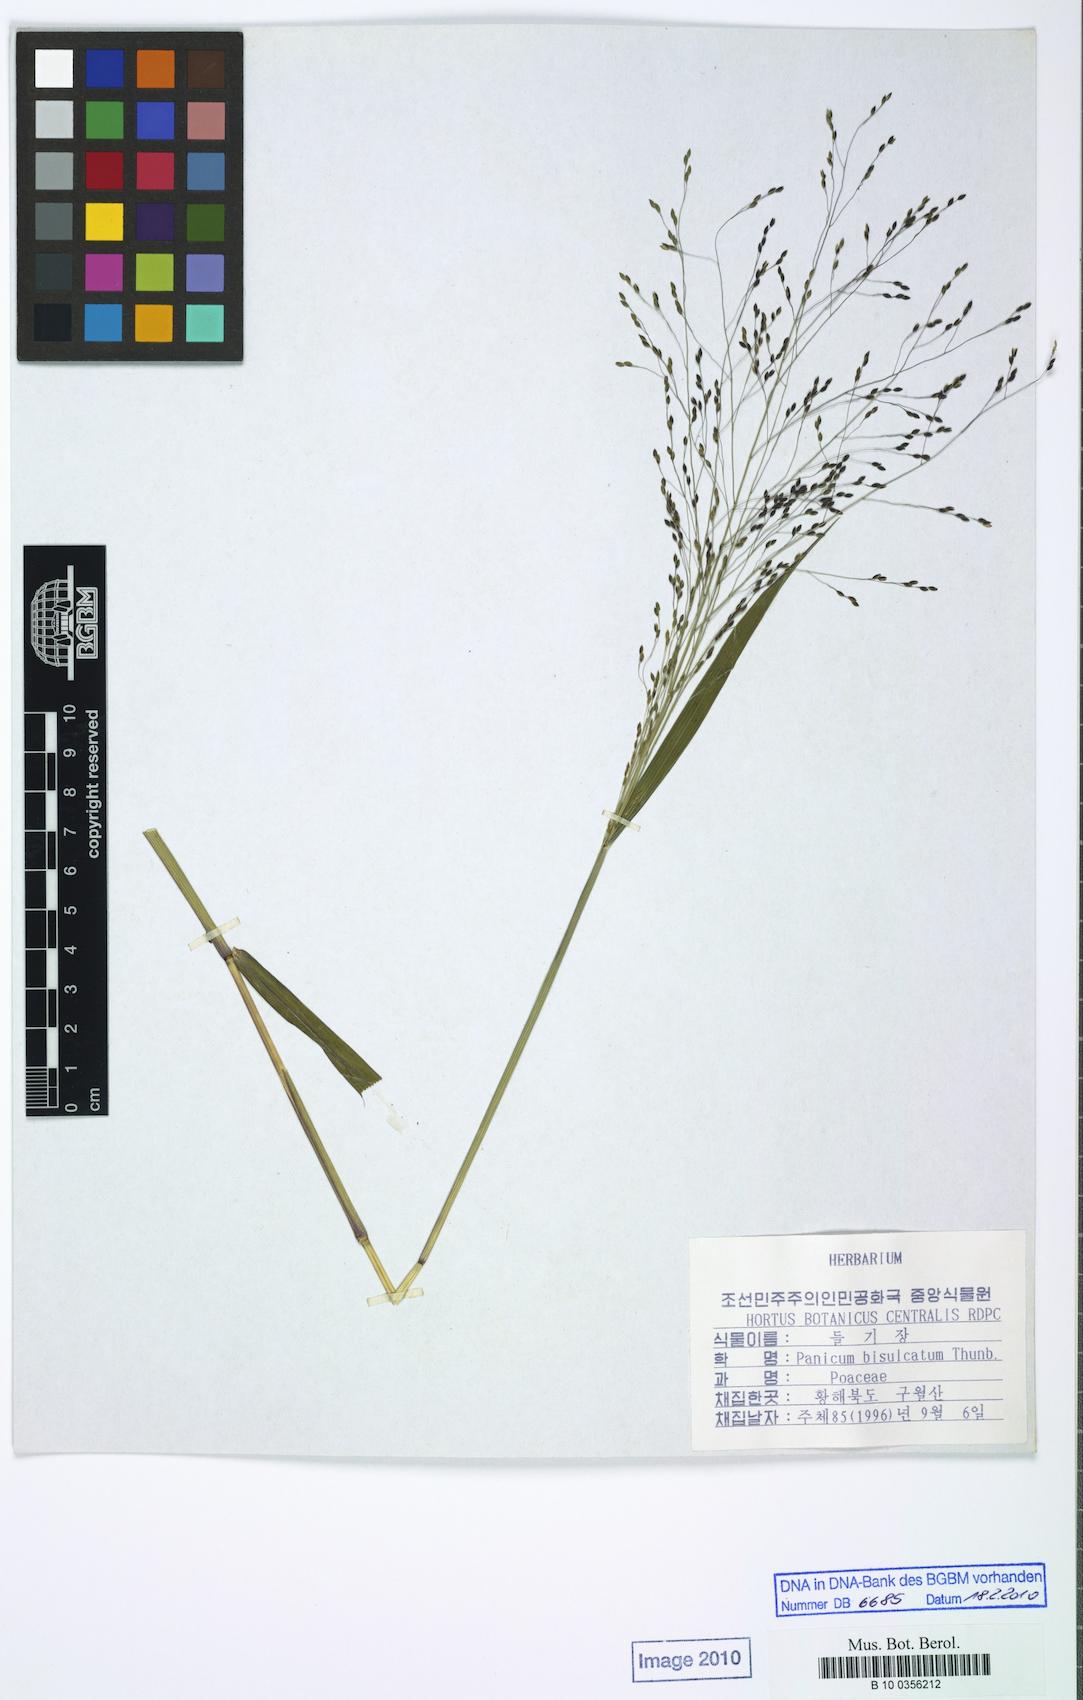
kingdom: Plantae
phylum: Tracheophyta
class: Liliopsida
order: Poales
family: Poaceae
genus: Panicum
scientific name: Panicum bisulcatum
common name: Japanese panicgrass
